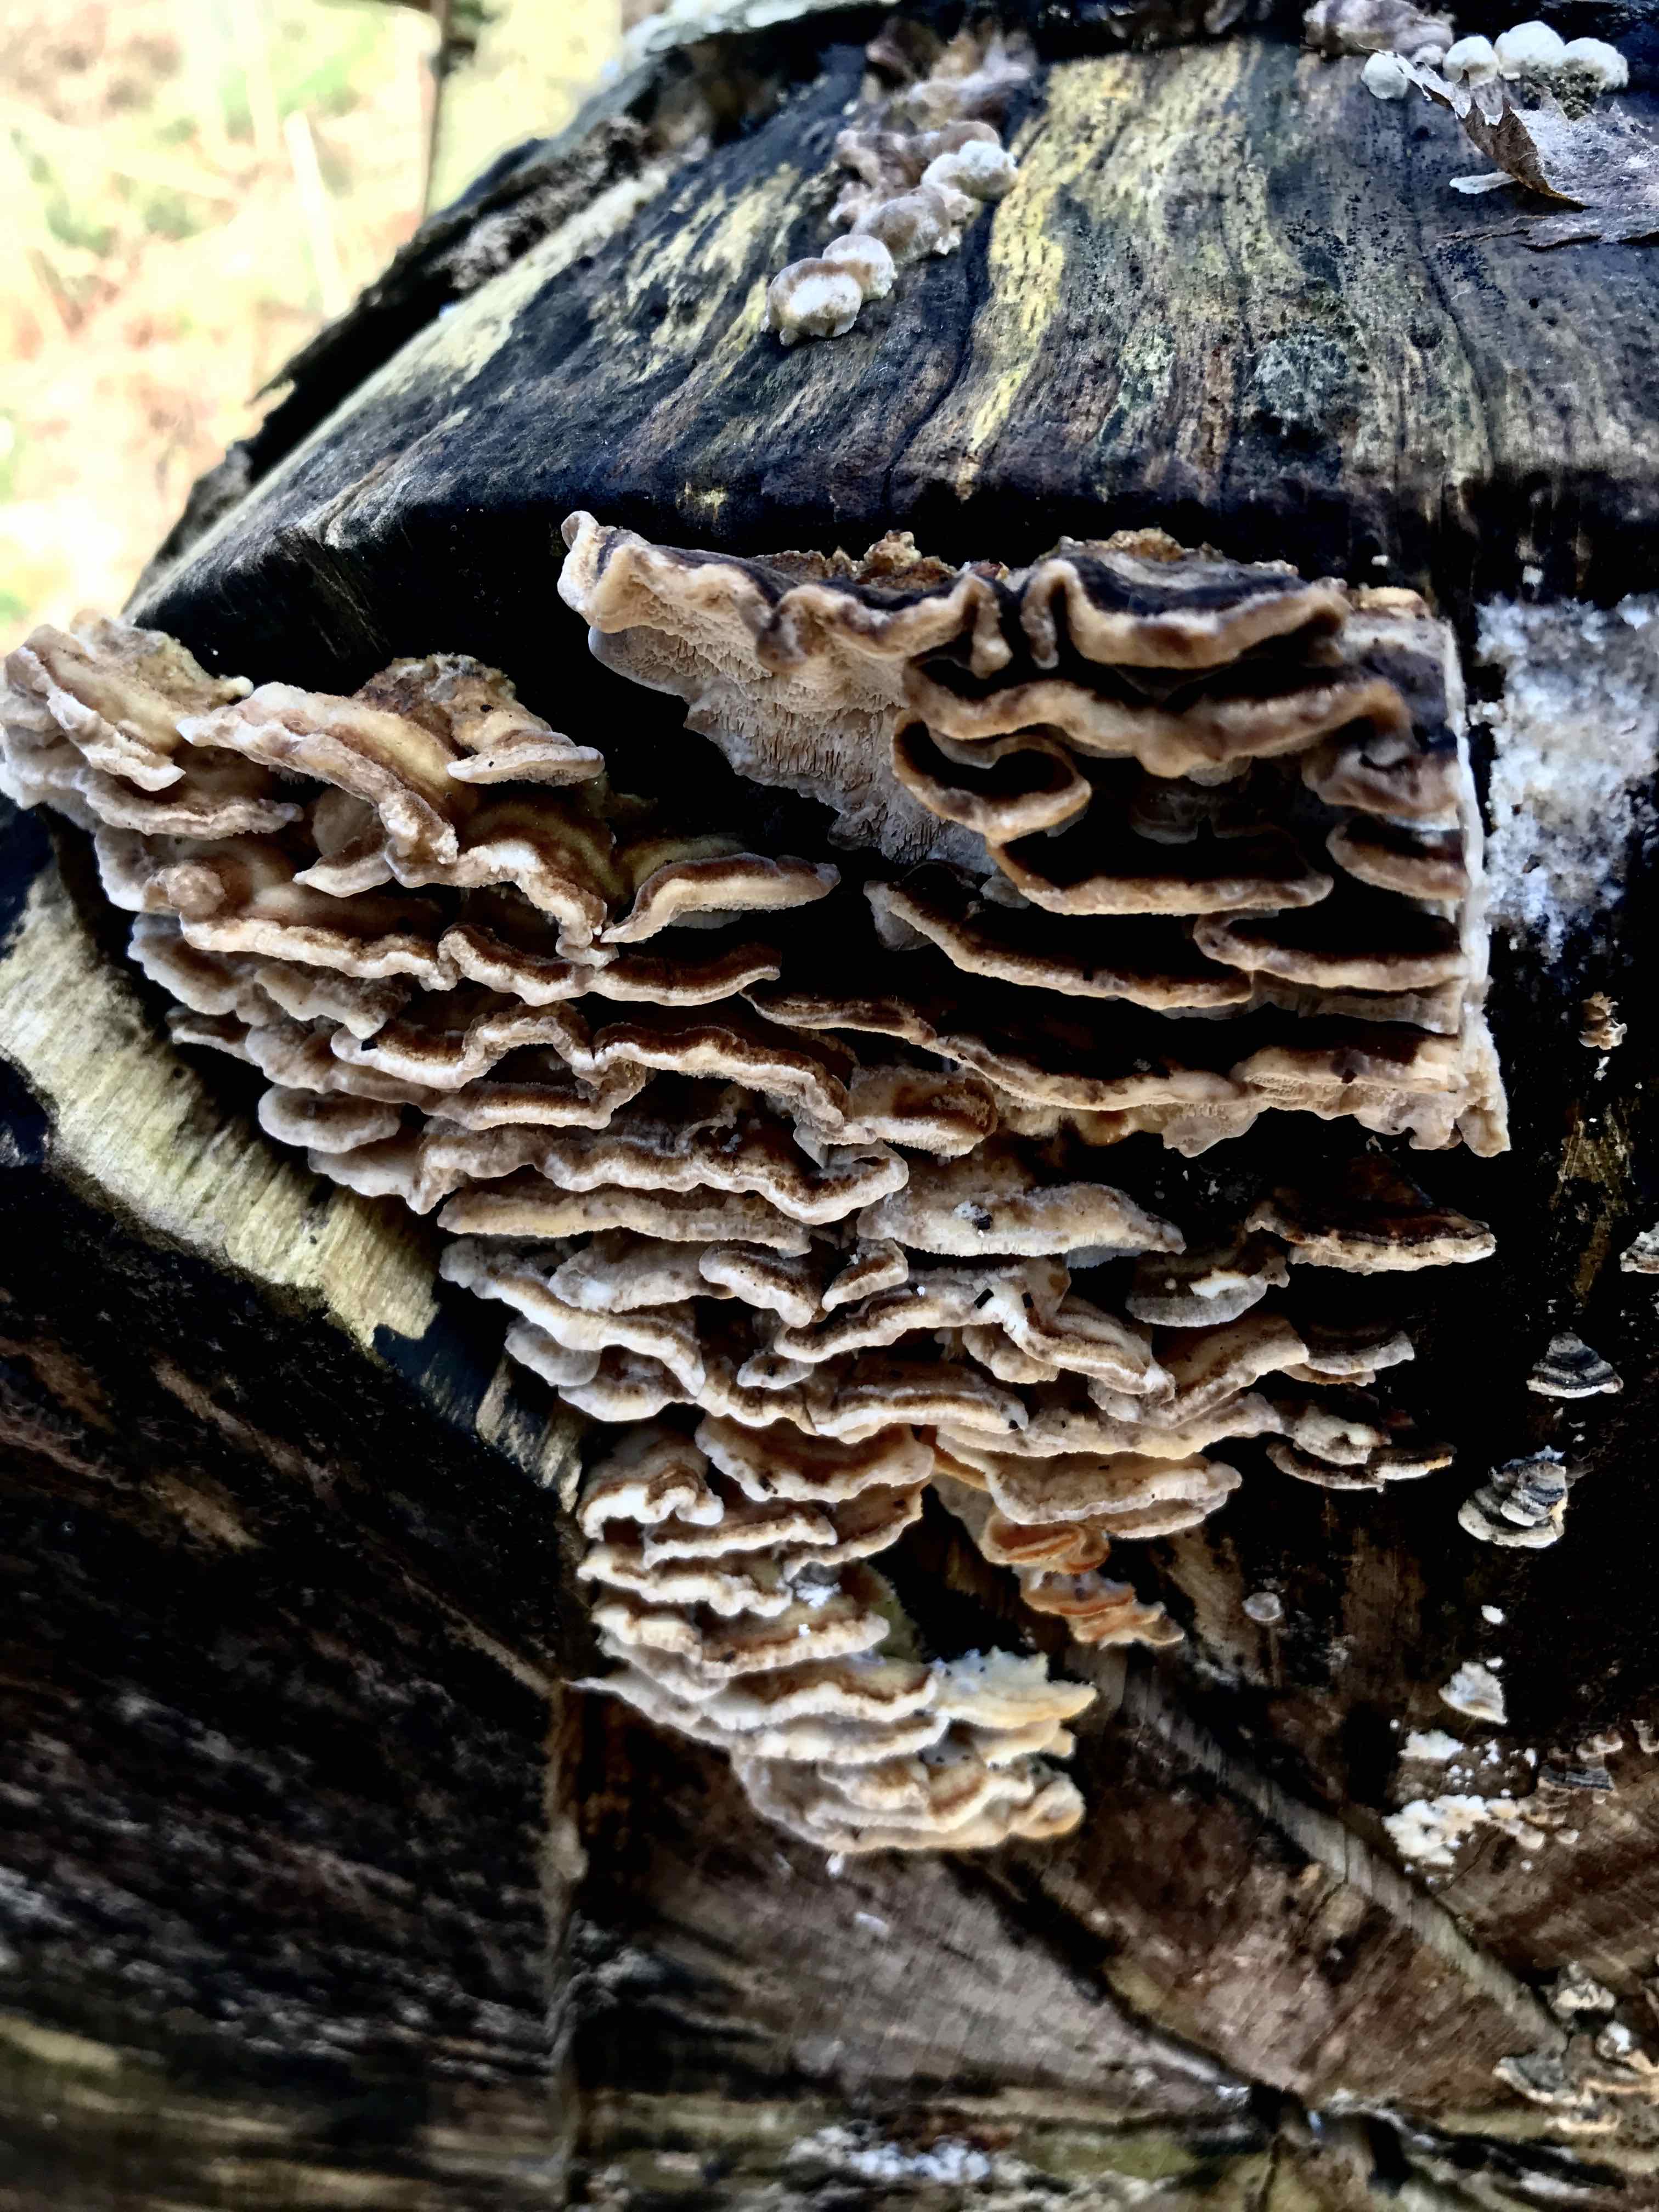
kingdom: Fungi
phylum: Basidiomycota
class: Agaricomycetes
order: Polyporales
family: Phanerochaetaceae
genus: Bjerkandera
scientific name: Bjerkandera fumosa
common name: grågul sodporesvamp
